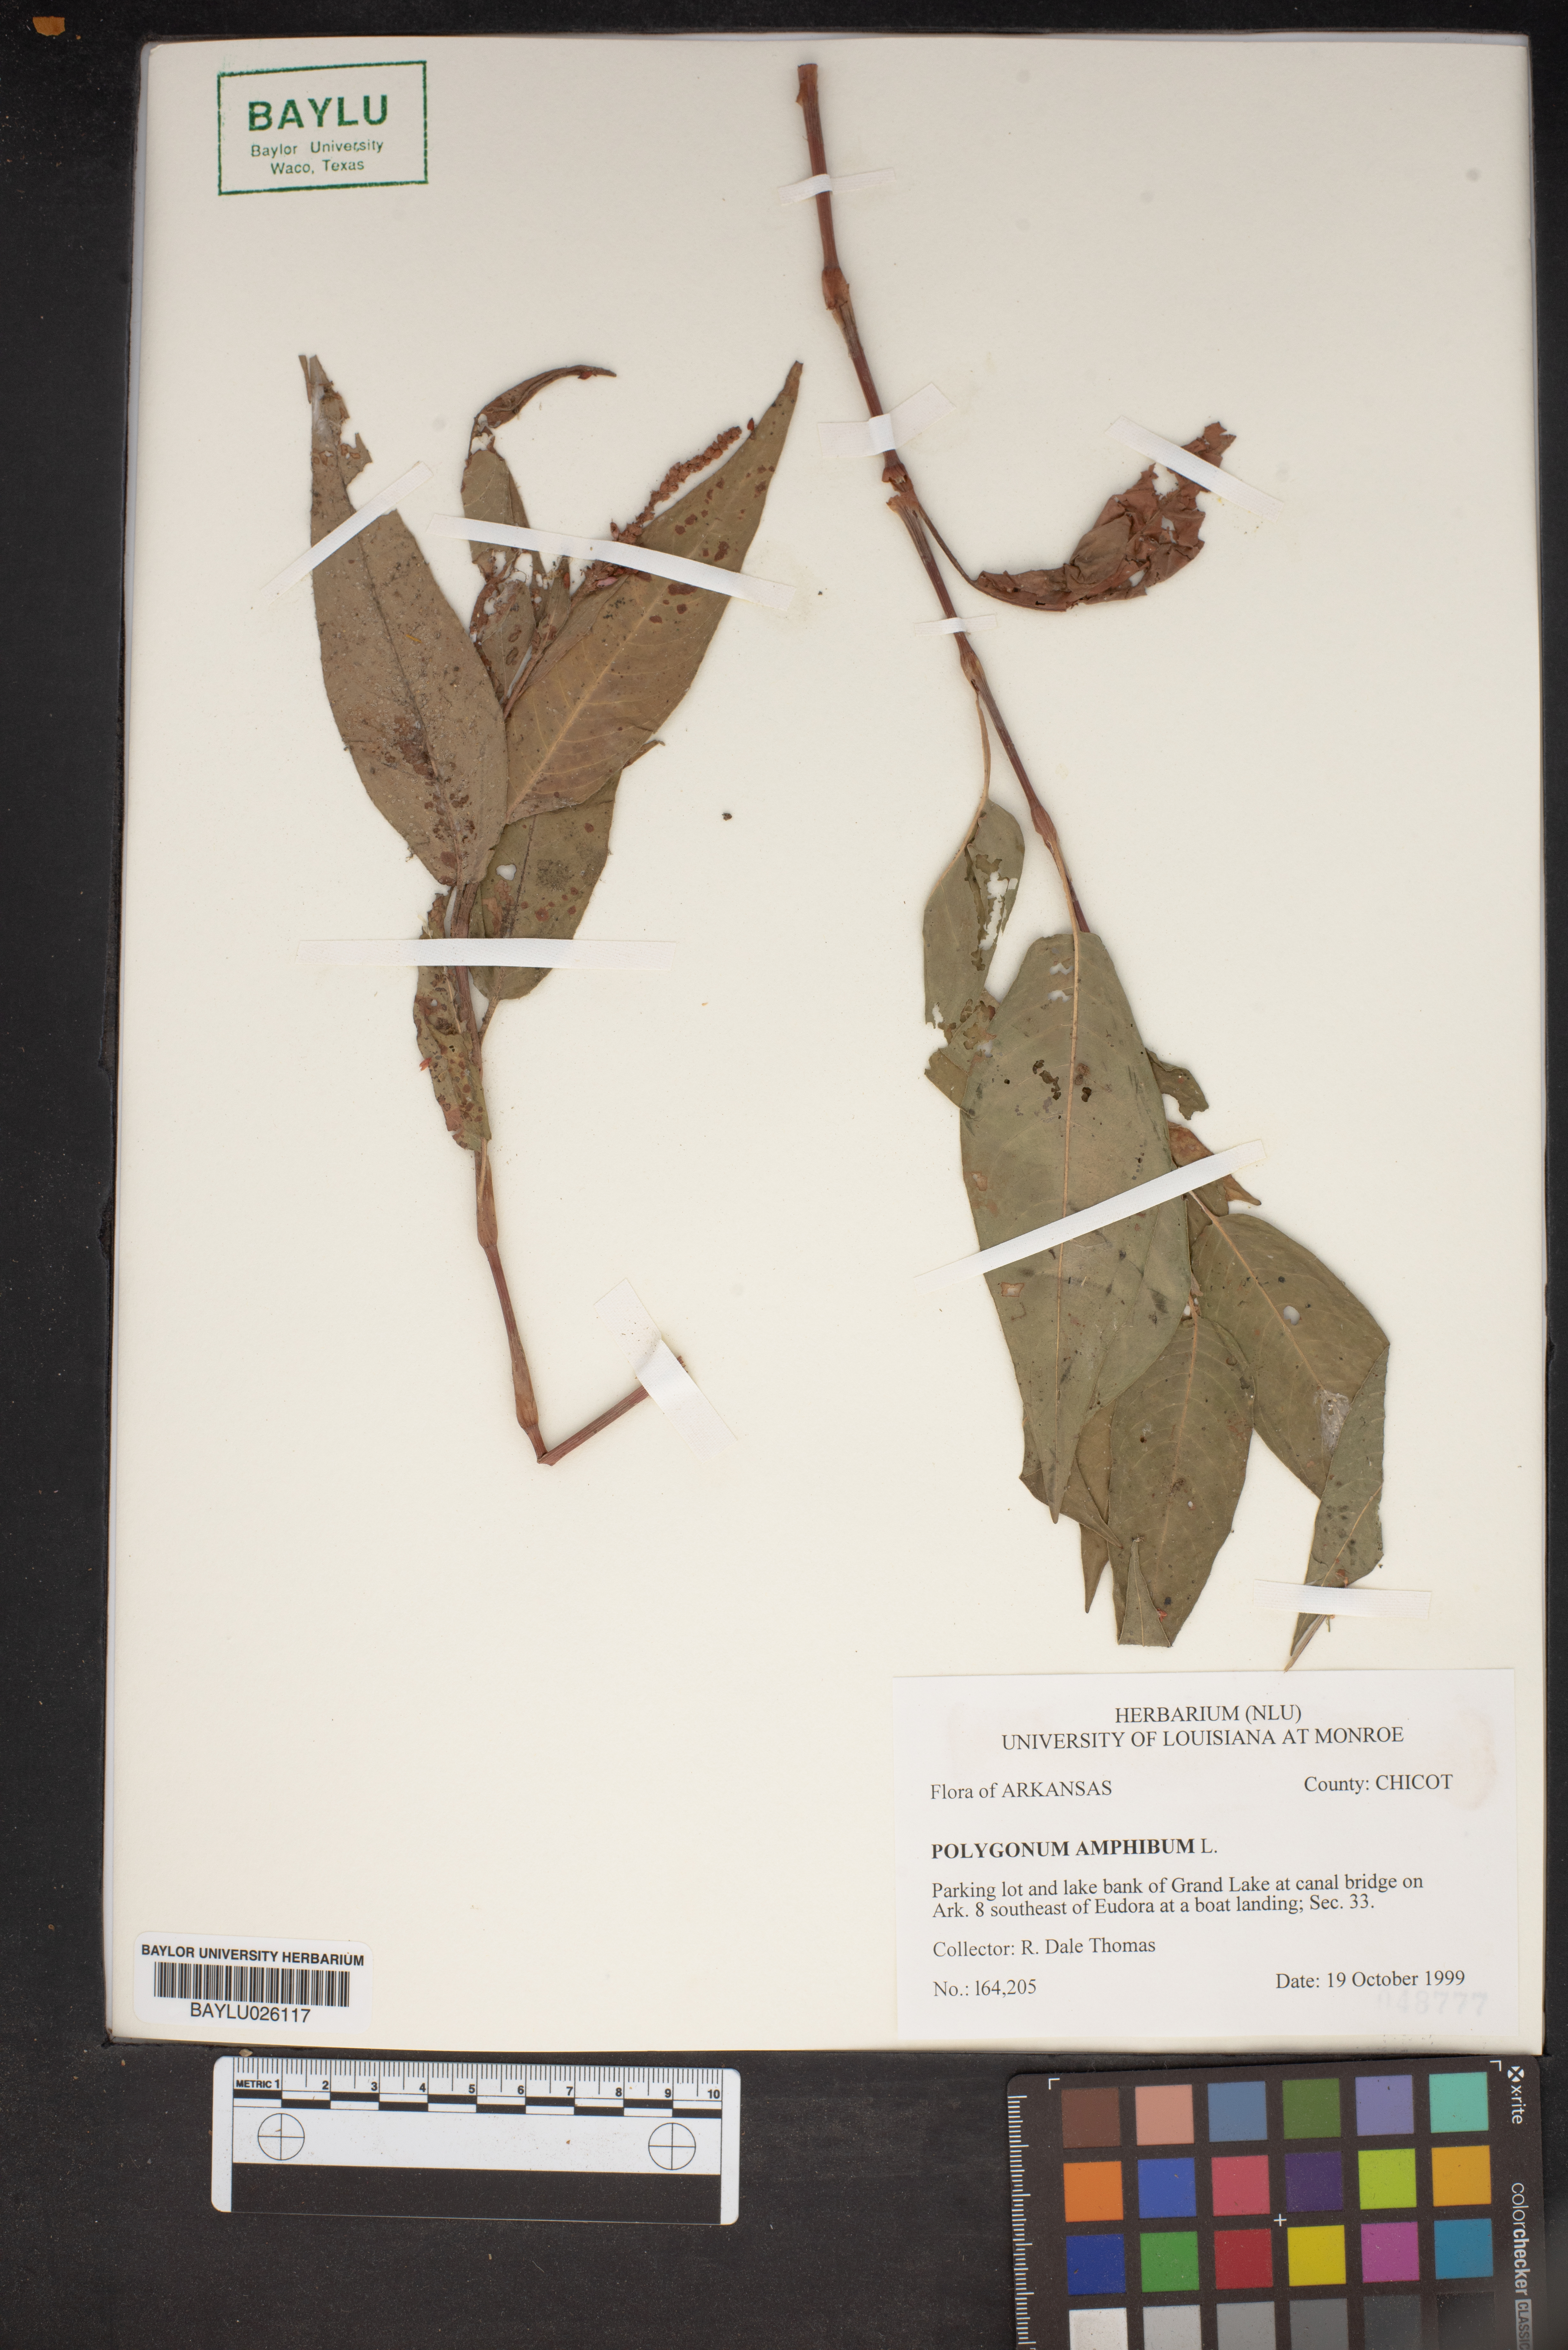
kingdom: Plantae
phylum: Tracheophyta
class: Magnoliopsida
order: Caryophyllales
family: Polygonaceae
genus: Persicaria
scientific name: Persicaria amphibia
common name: Amphibious bistort
